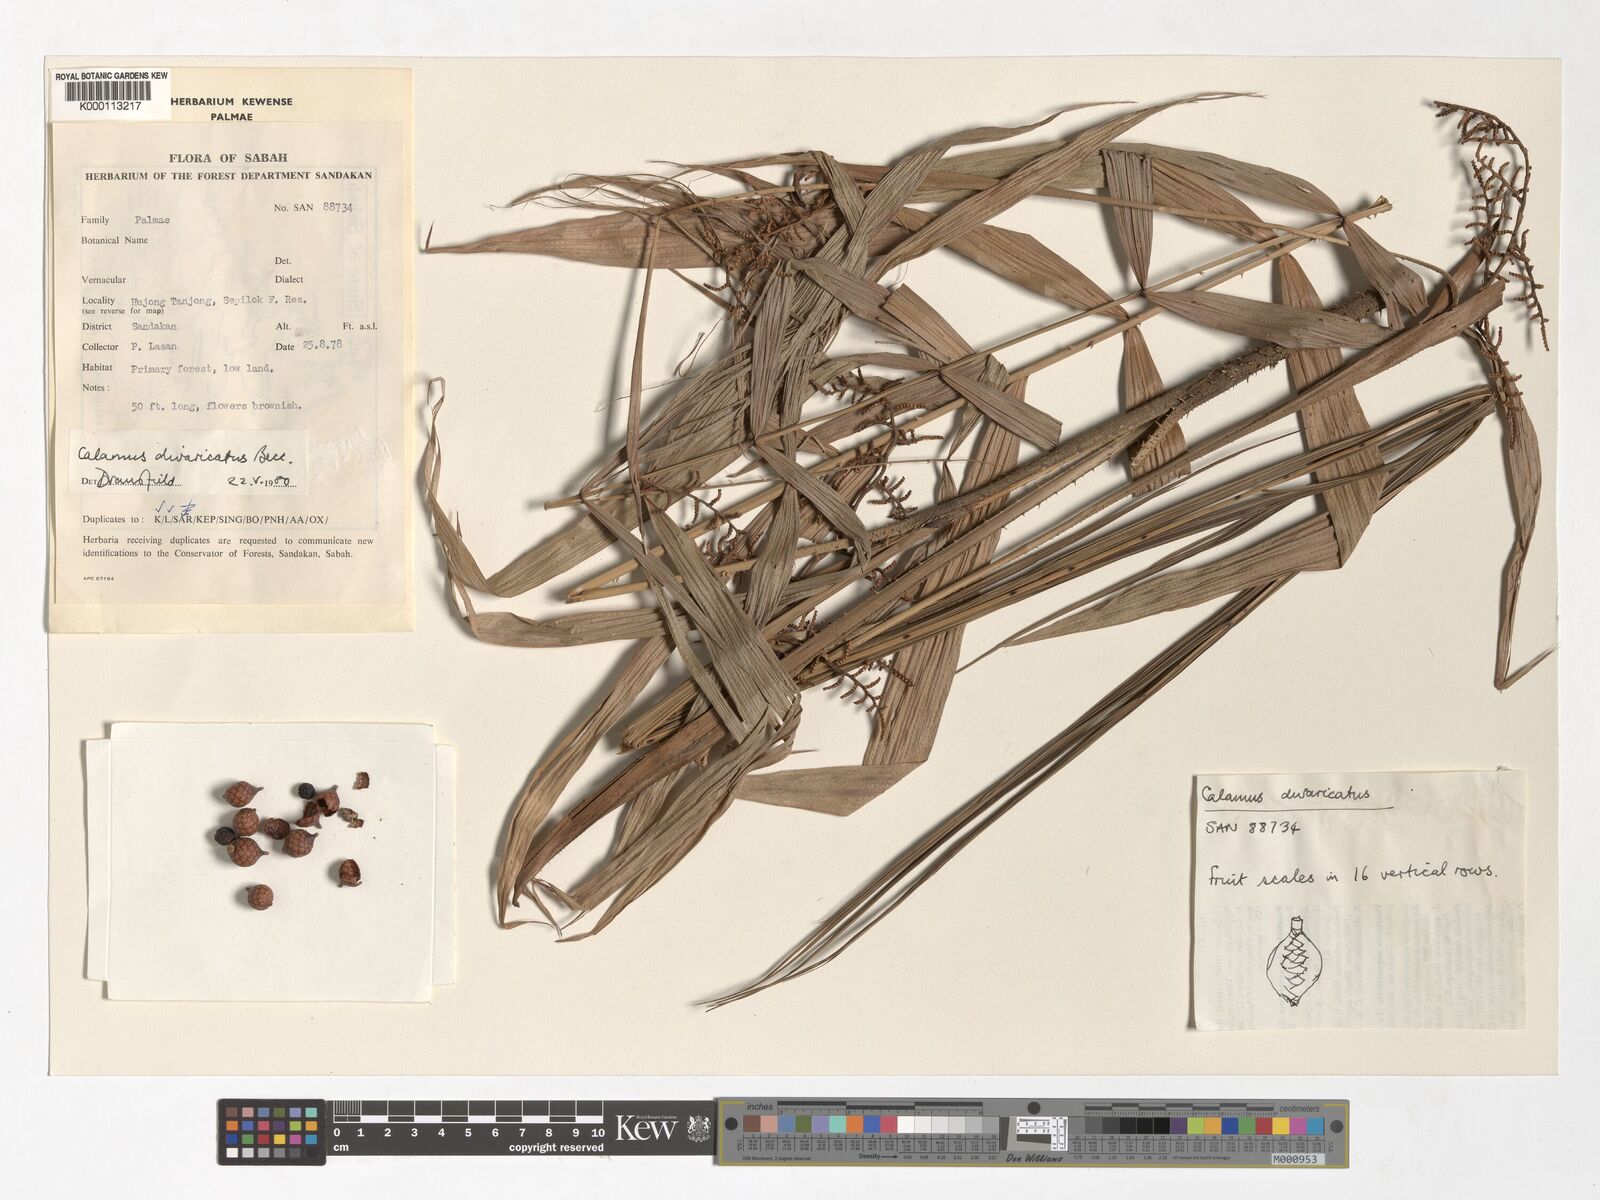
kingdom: Plantae
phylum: Tracheophyta
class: Liliopsida
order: Arecales
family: Arecaceae
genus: Calamus
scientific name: Calamus divaricatus
